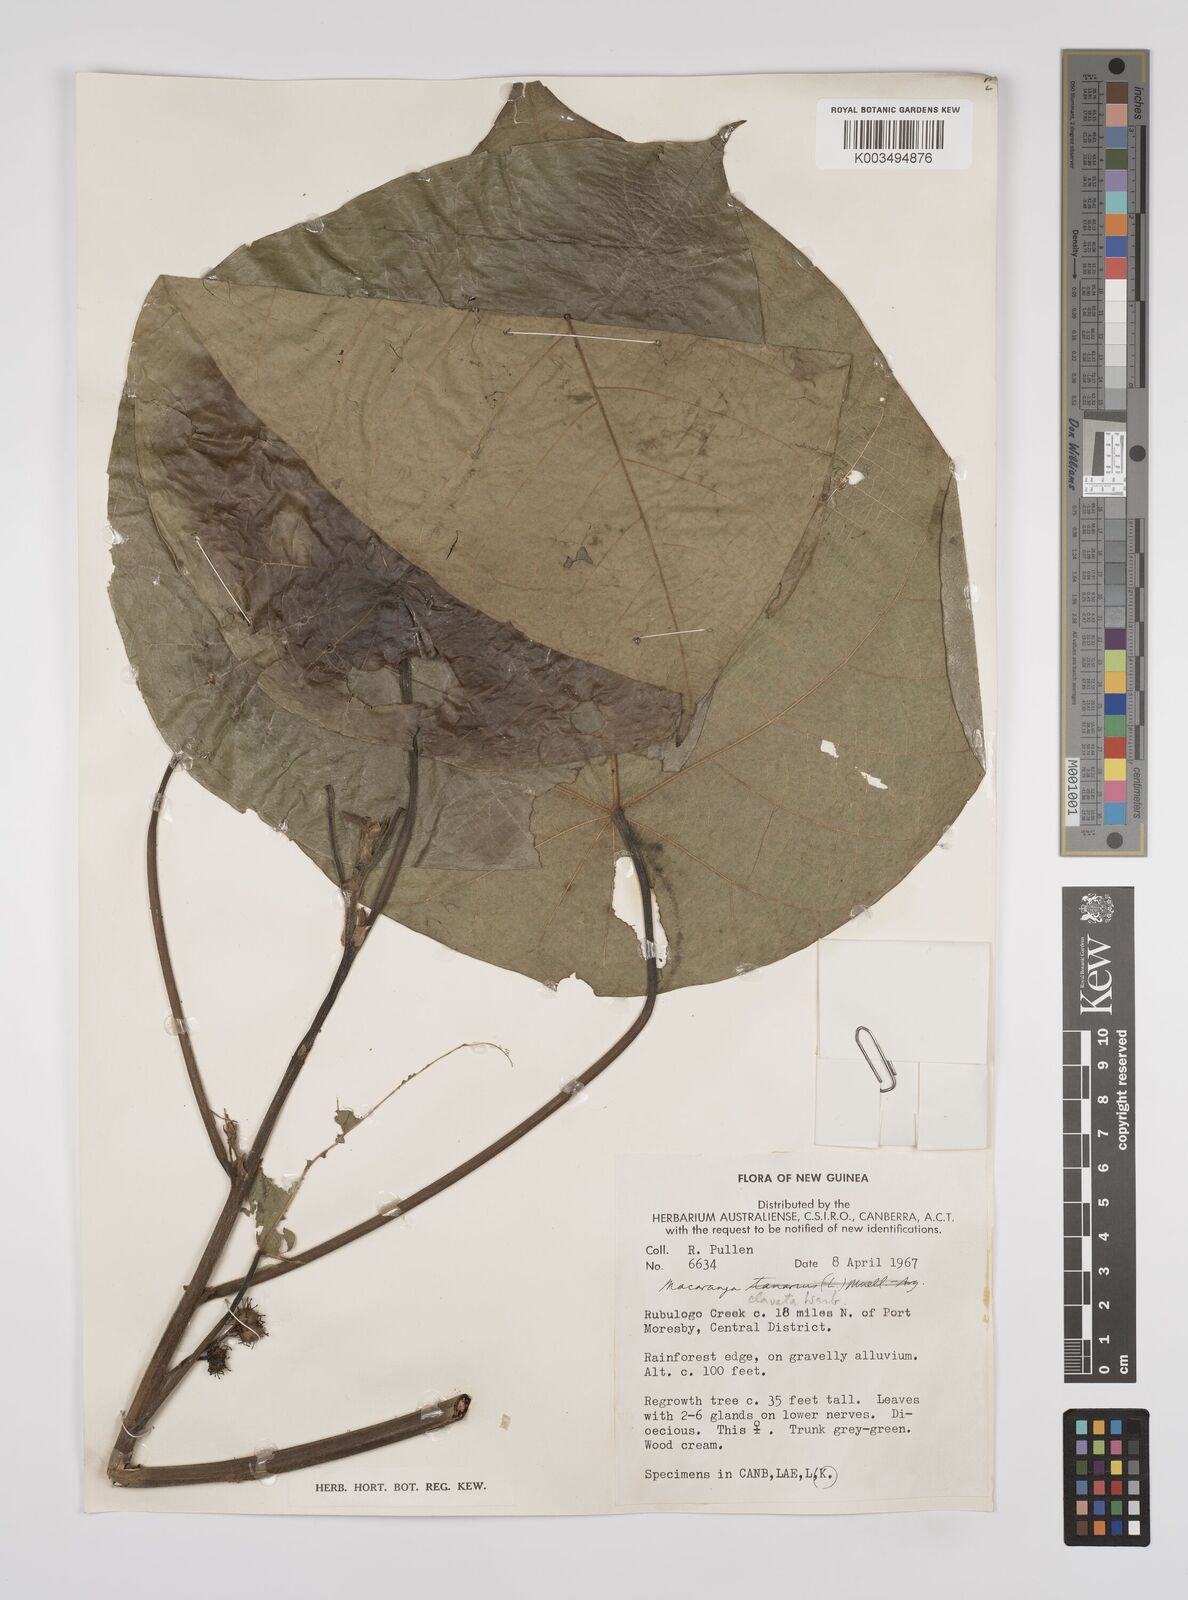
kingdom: Plantae
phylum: Tracheophyta
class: Magnoliopsida
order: Malpighiales
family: Euphorbiaceae
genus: Macaranga
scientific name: Macaranga clavata
